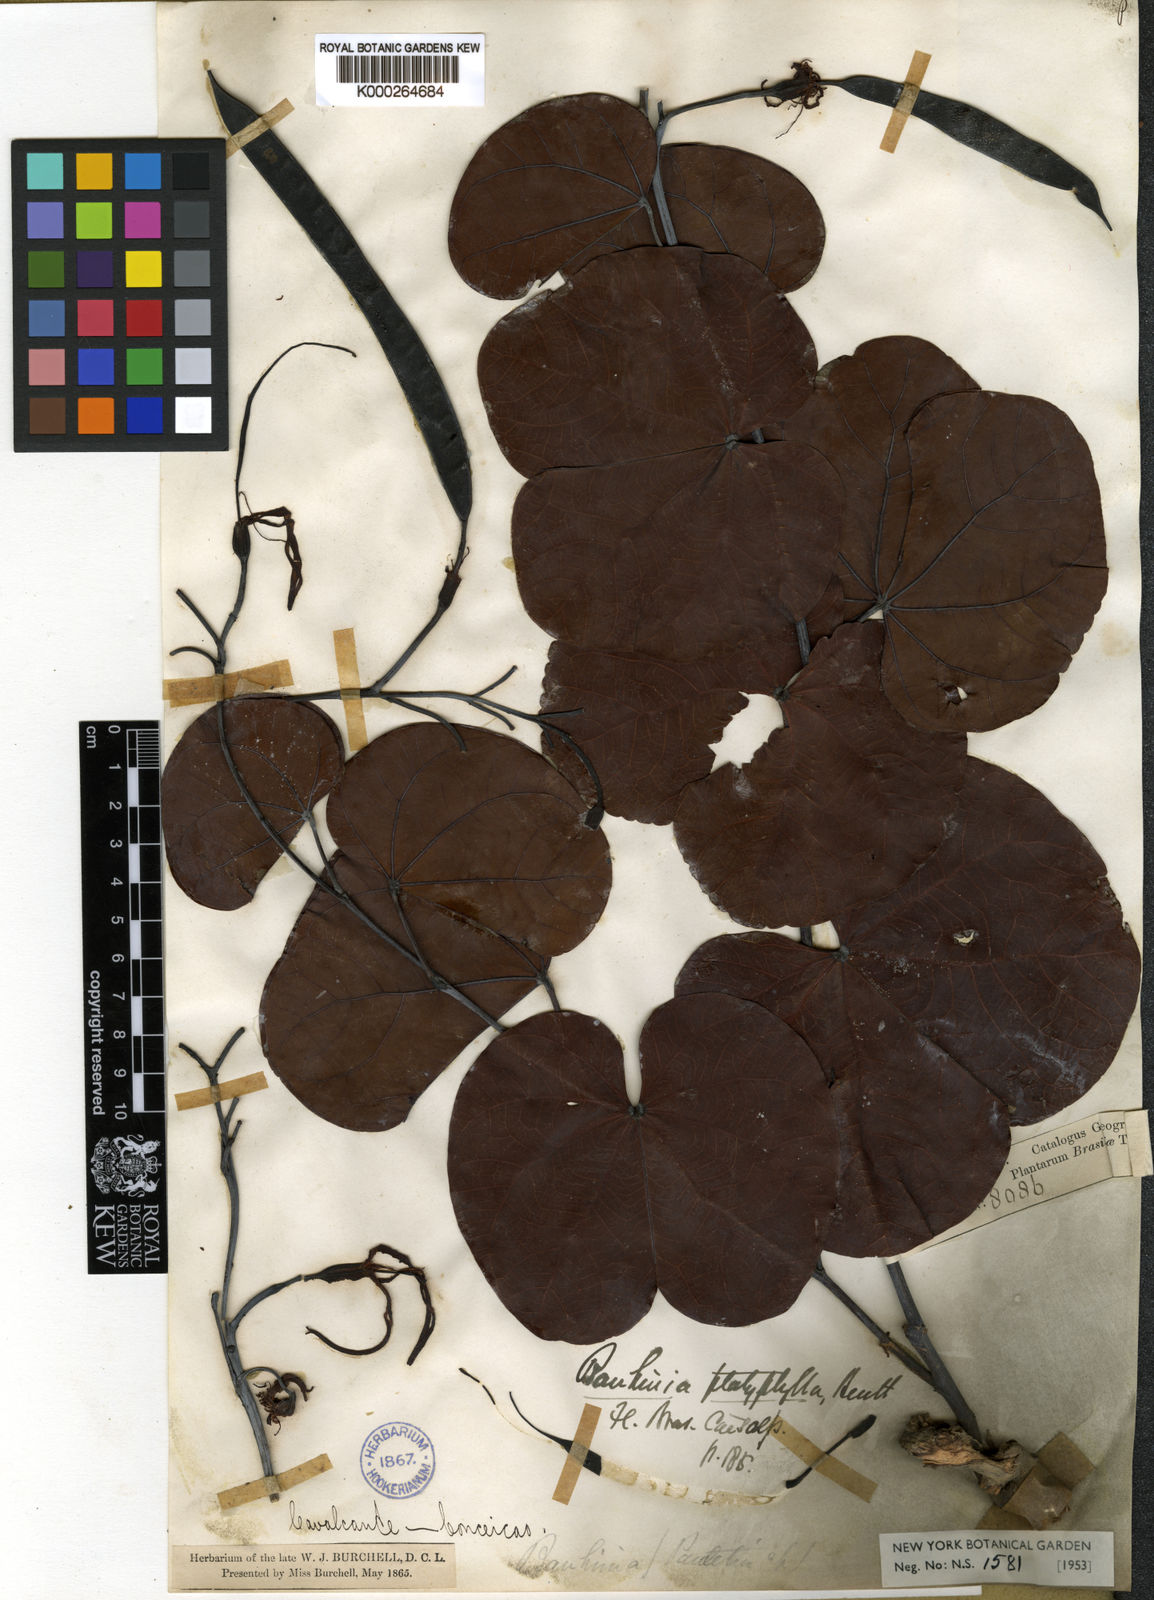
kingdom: Plantae
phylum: Tracheophyta
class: Magnoliopsida
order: Fabales
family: Fabaceae
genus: Piliostigma
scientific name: Piliostigma malabaricum
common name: Malabar bauhinia
